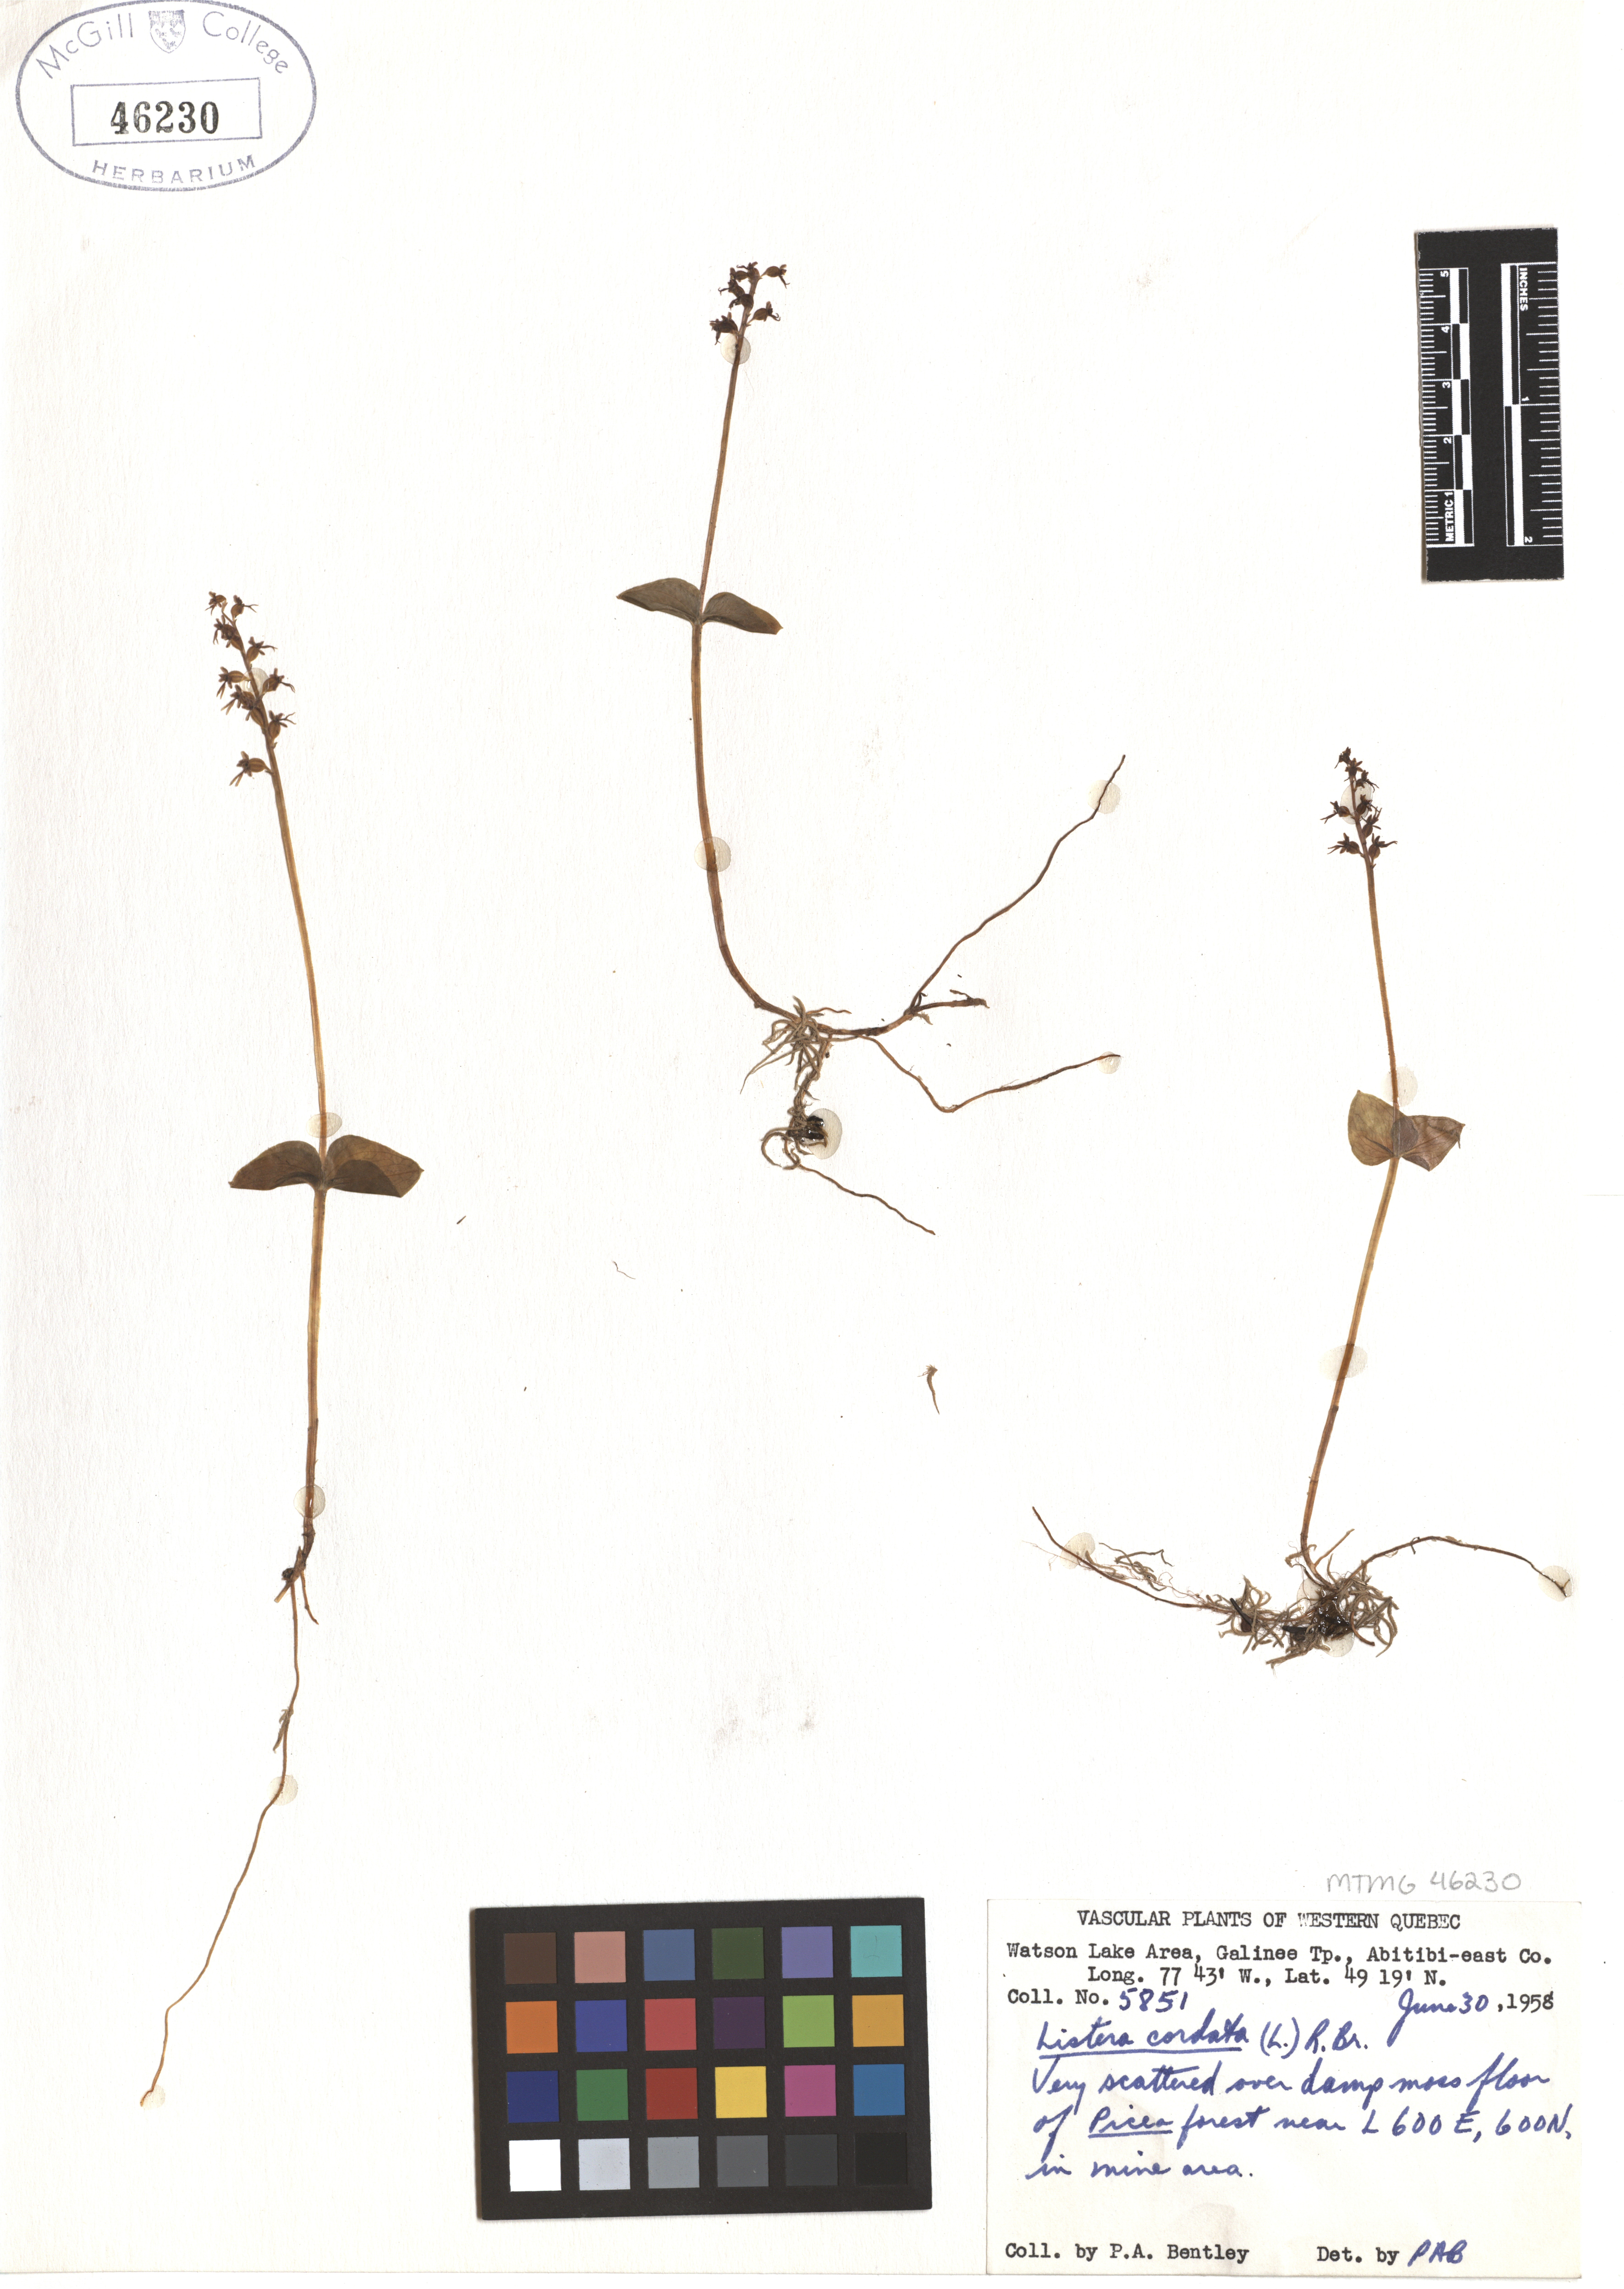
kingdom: Plantae
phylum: Tracheophyta
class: Liliopsida
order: Asparagales
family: Orchidaceae
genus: Neottia
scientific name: Neottia cordata
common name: Lesser twayblade
